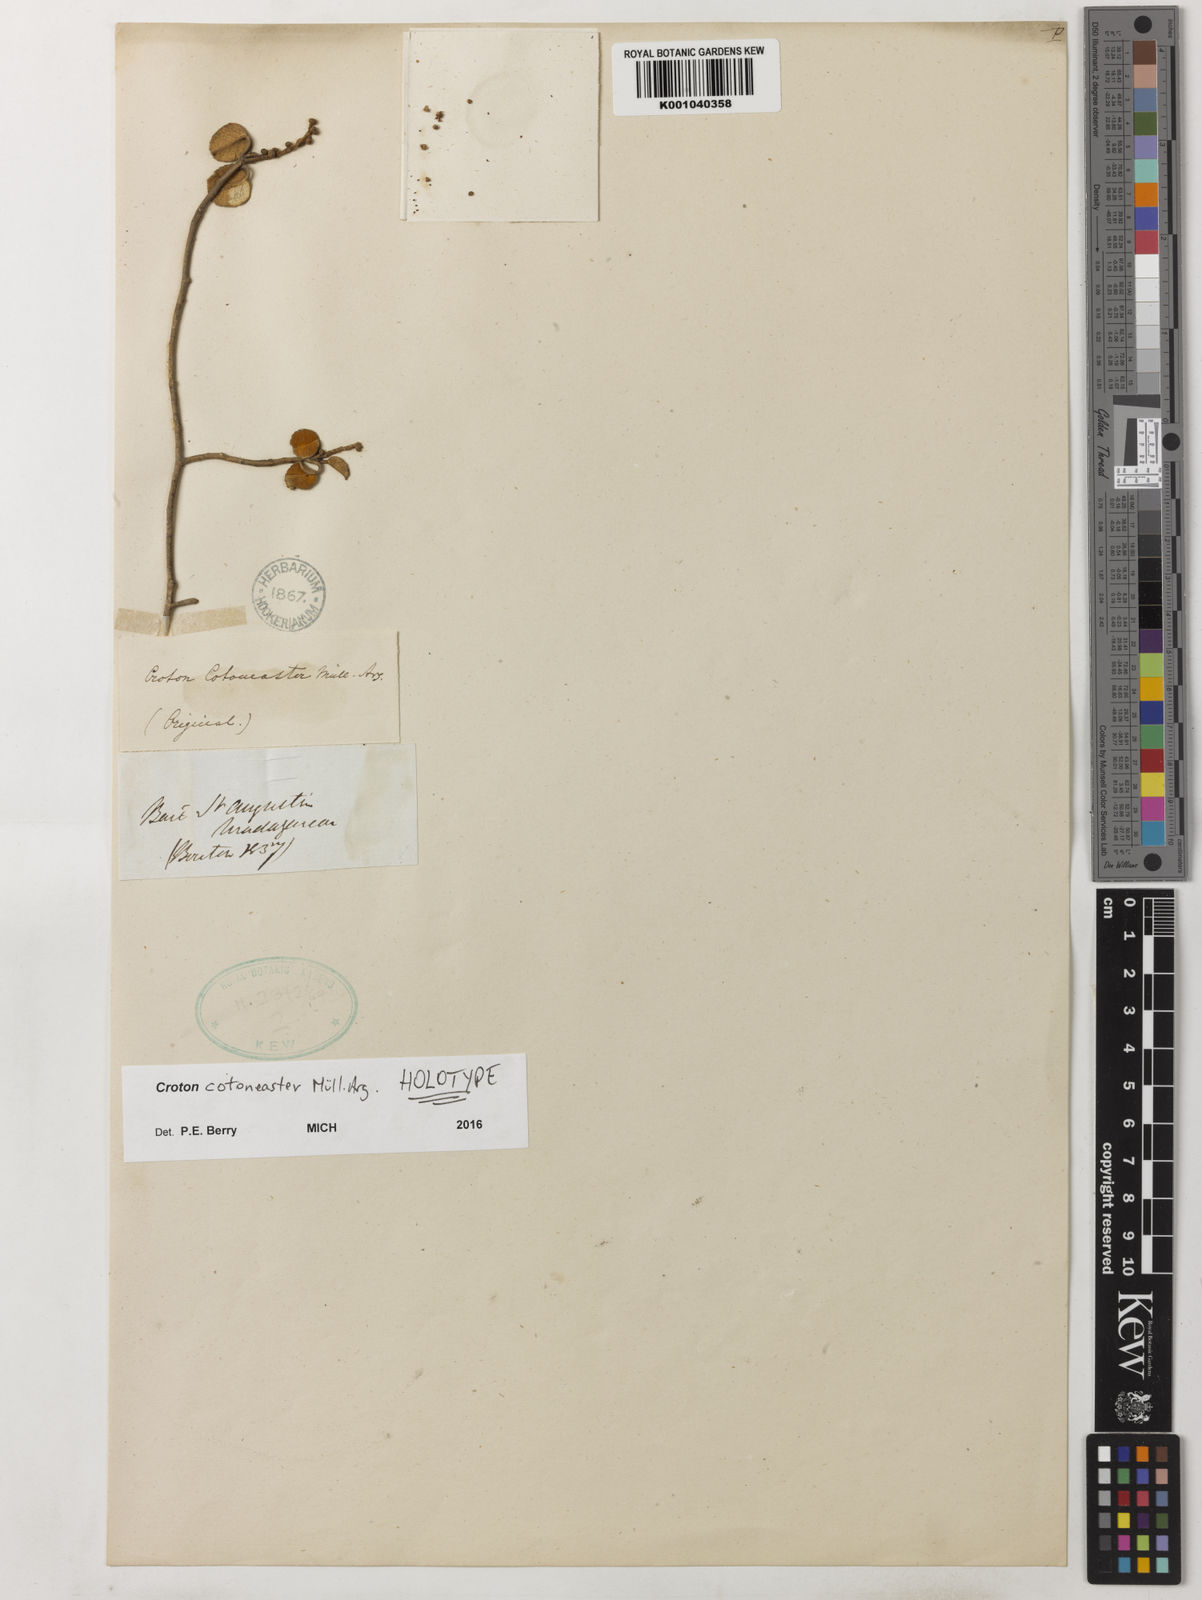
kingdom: Plantae
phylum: Tracheophyta
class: Magnoliopsida
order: Malpighiales
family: Euphorbiaceae
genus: Croton
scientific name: Croton
